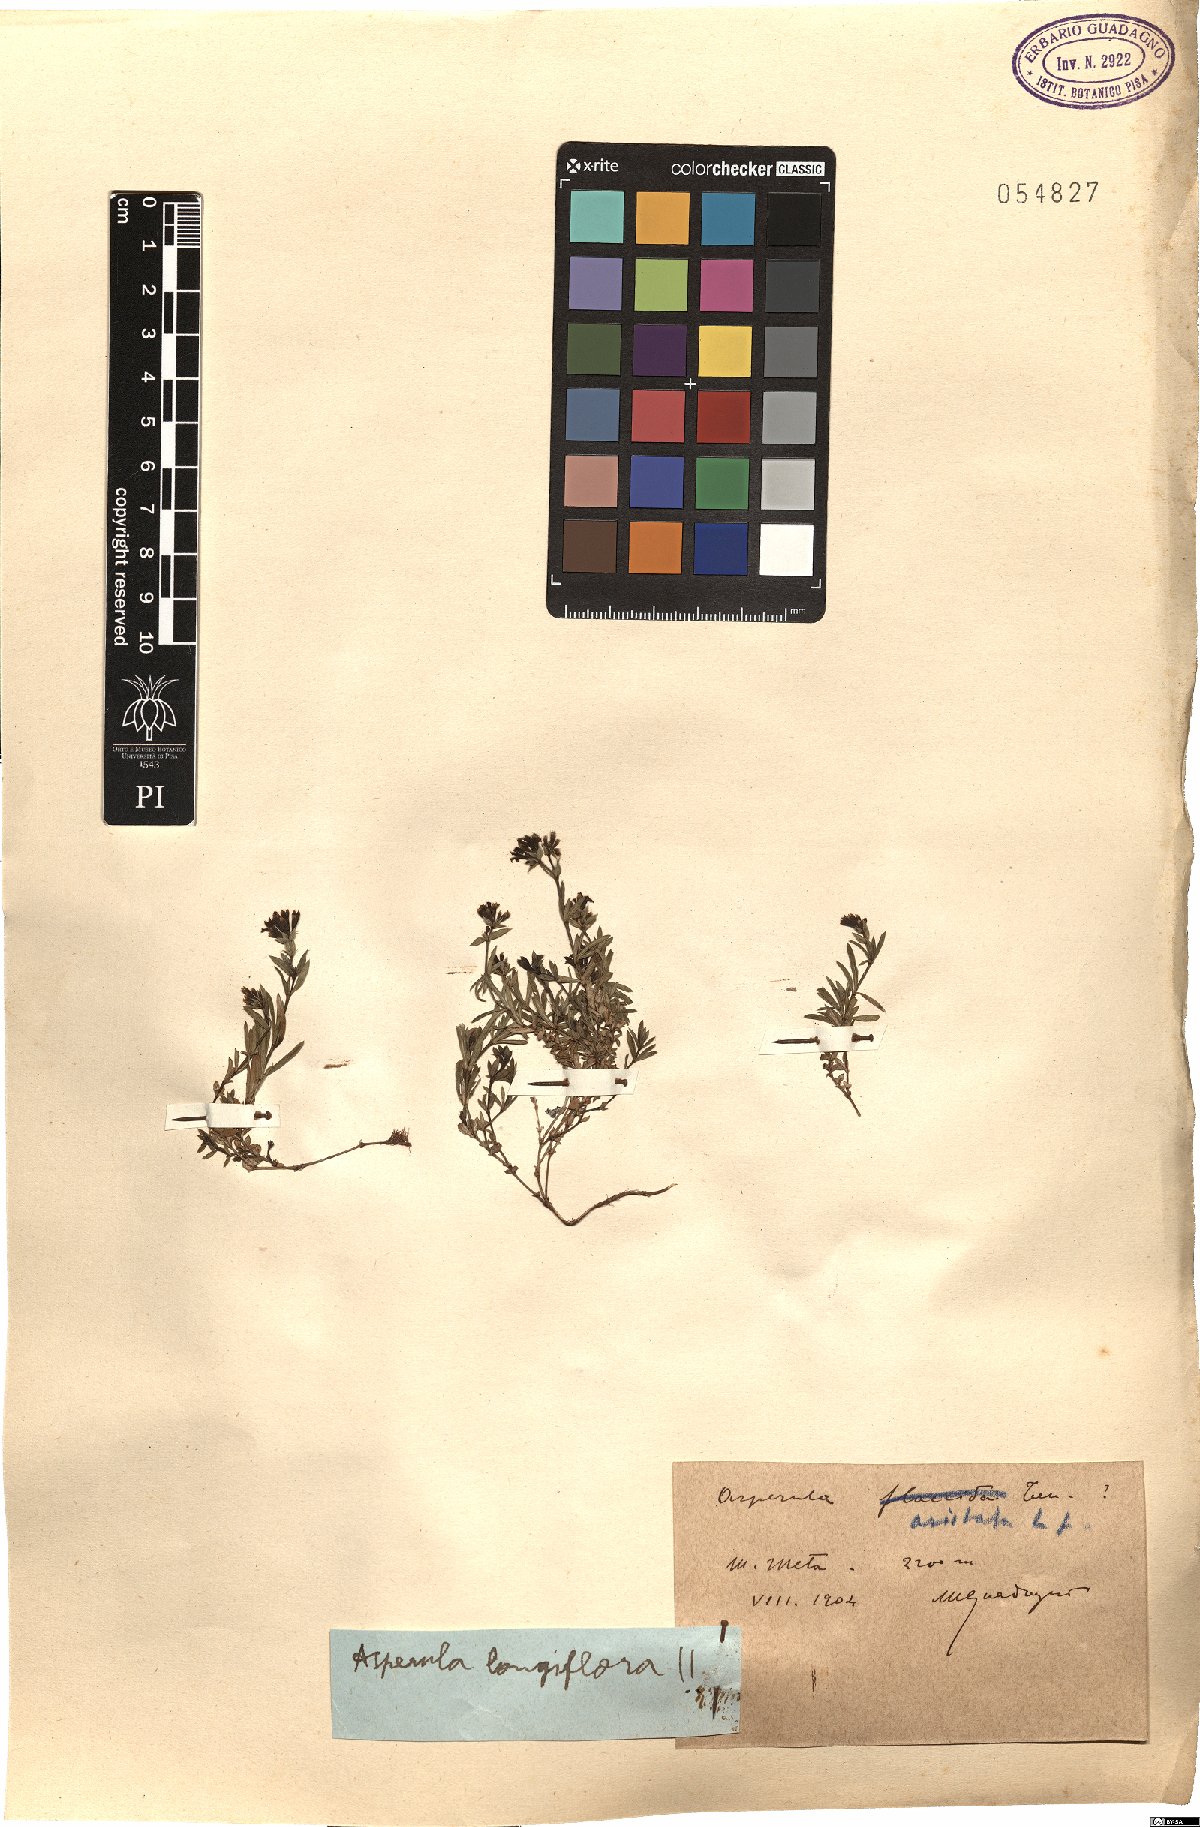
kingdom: Plantae
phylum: Tracheophyta
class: Magnoliopsida
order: Gentianales
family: Rubiaceae
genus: Cynanchica
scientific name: Cynanchica aristata
